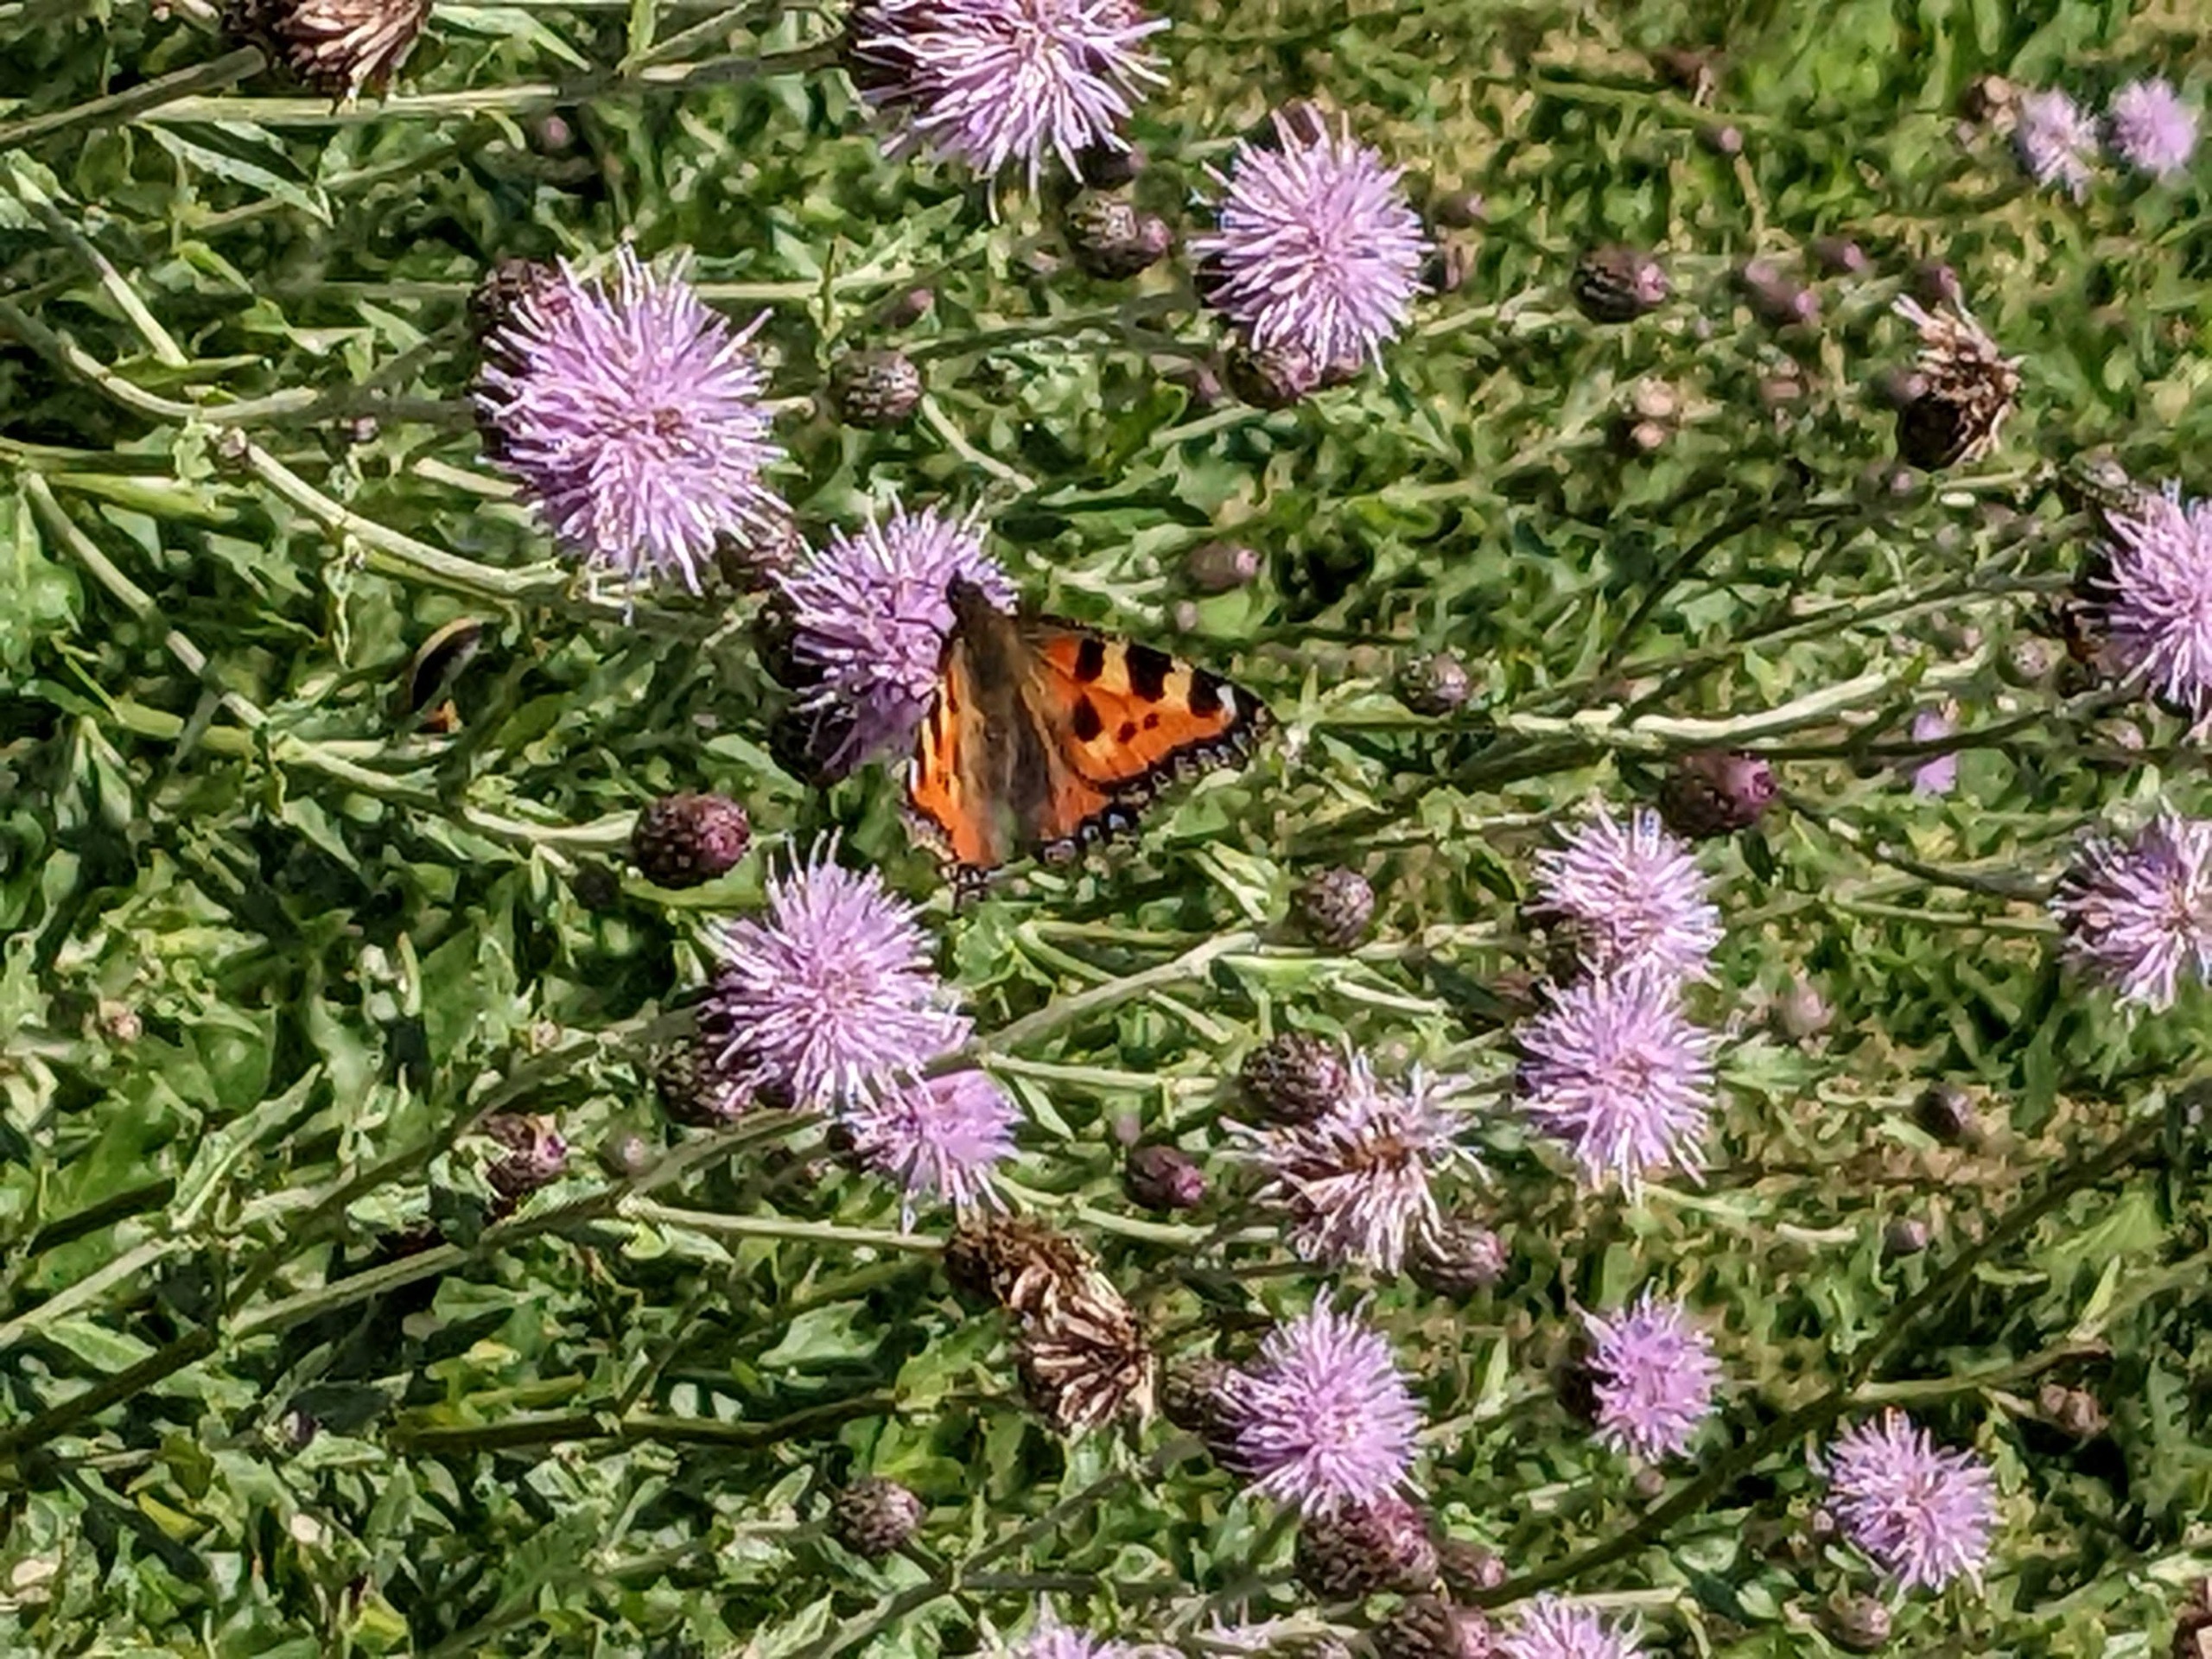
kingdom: Animalia
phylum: Arthropoda
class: Insecta
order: Lepidoptera
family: Nymphalidae
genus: Aglais
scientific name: Aglais urticae
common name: Nældens takvinge
